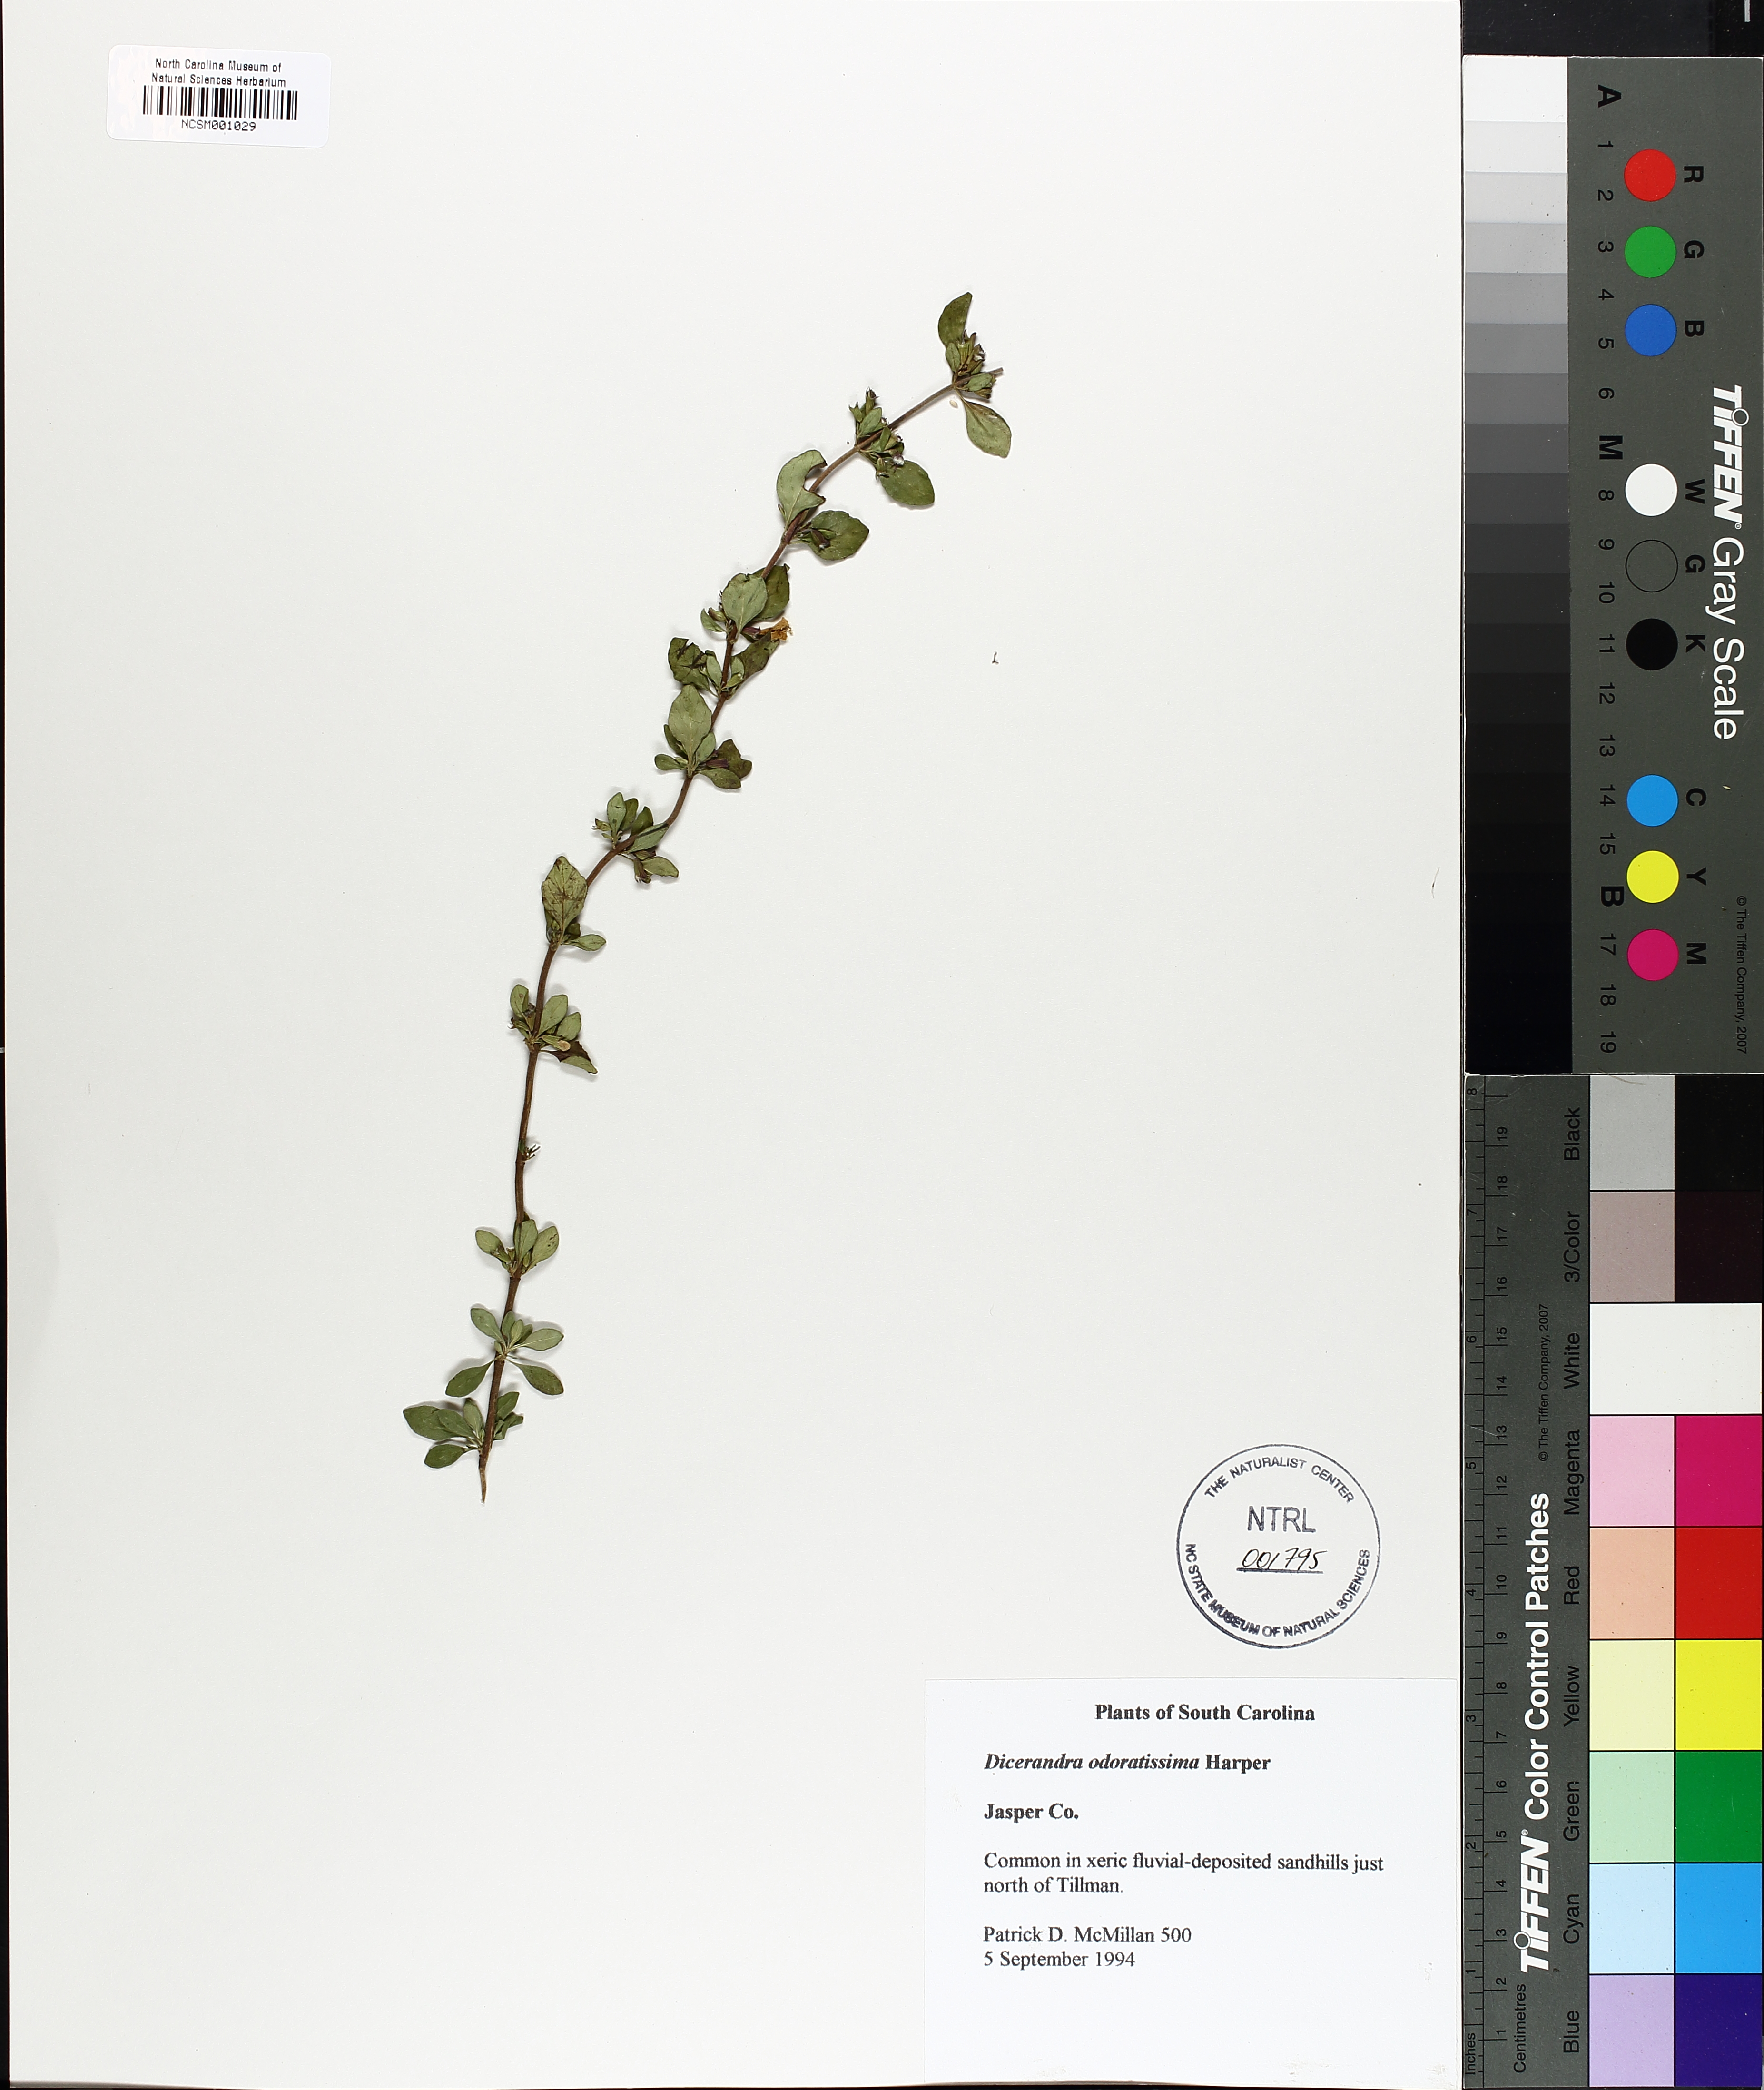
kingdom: Plantae
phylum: Tracheophyta
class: Magnoliopsida
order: Lamiales
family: Lamiaceae
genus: Dicerandra
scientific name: Dicerandra odoratissima
